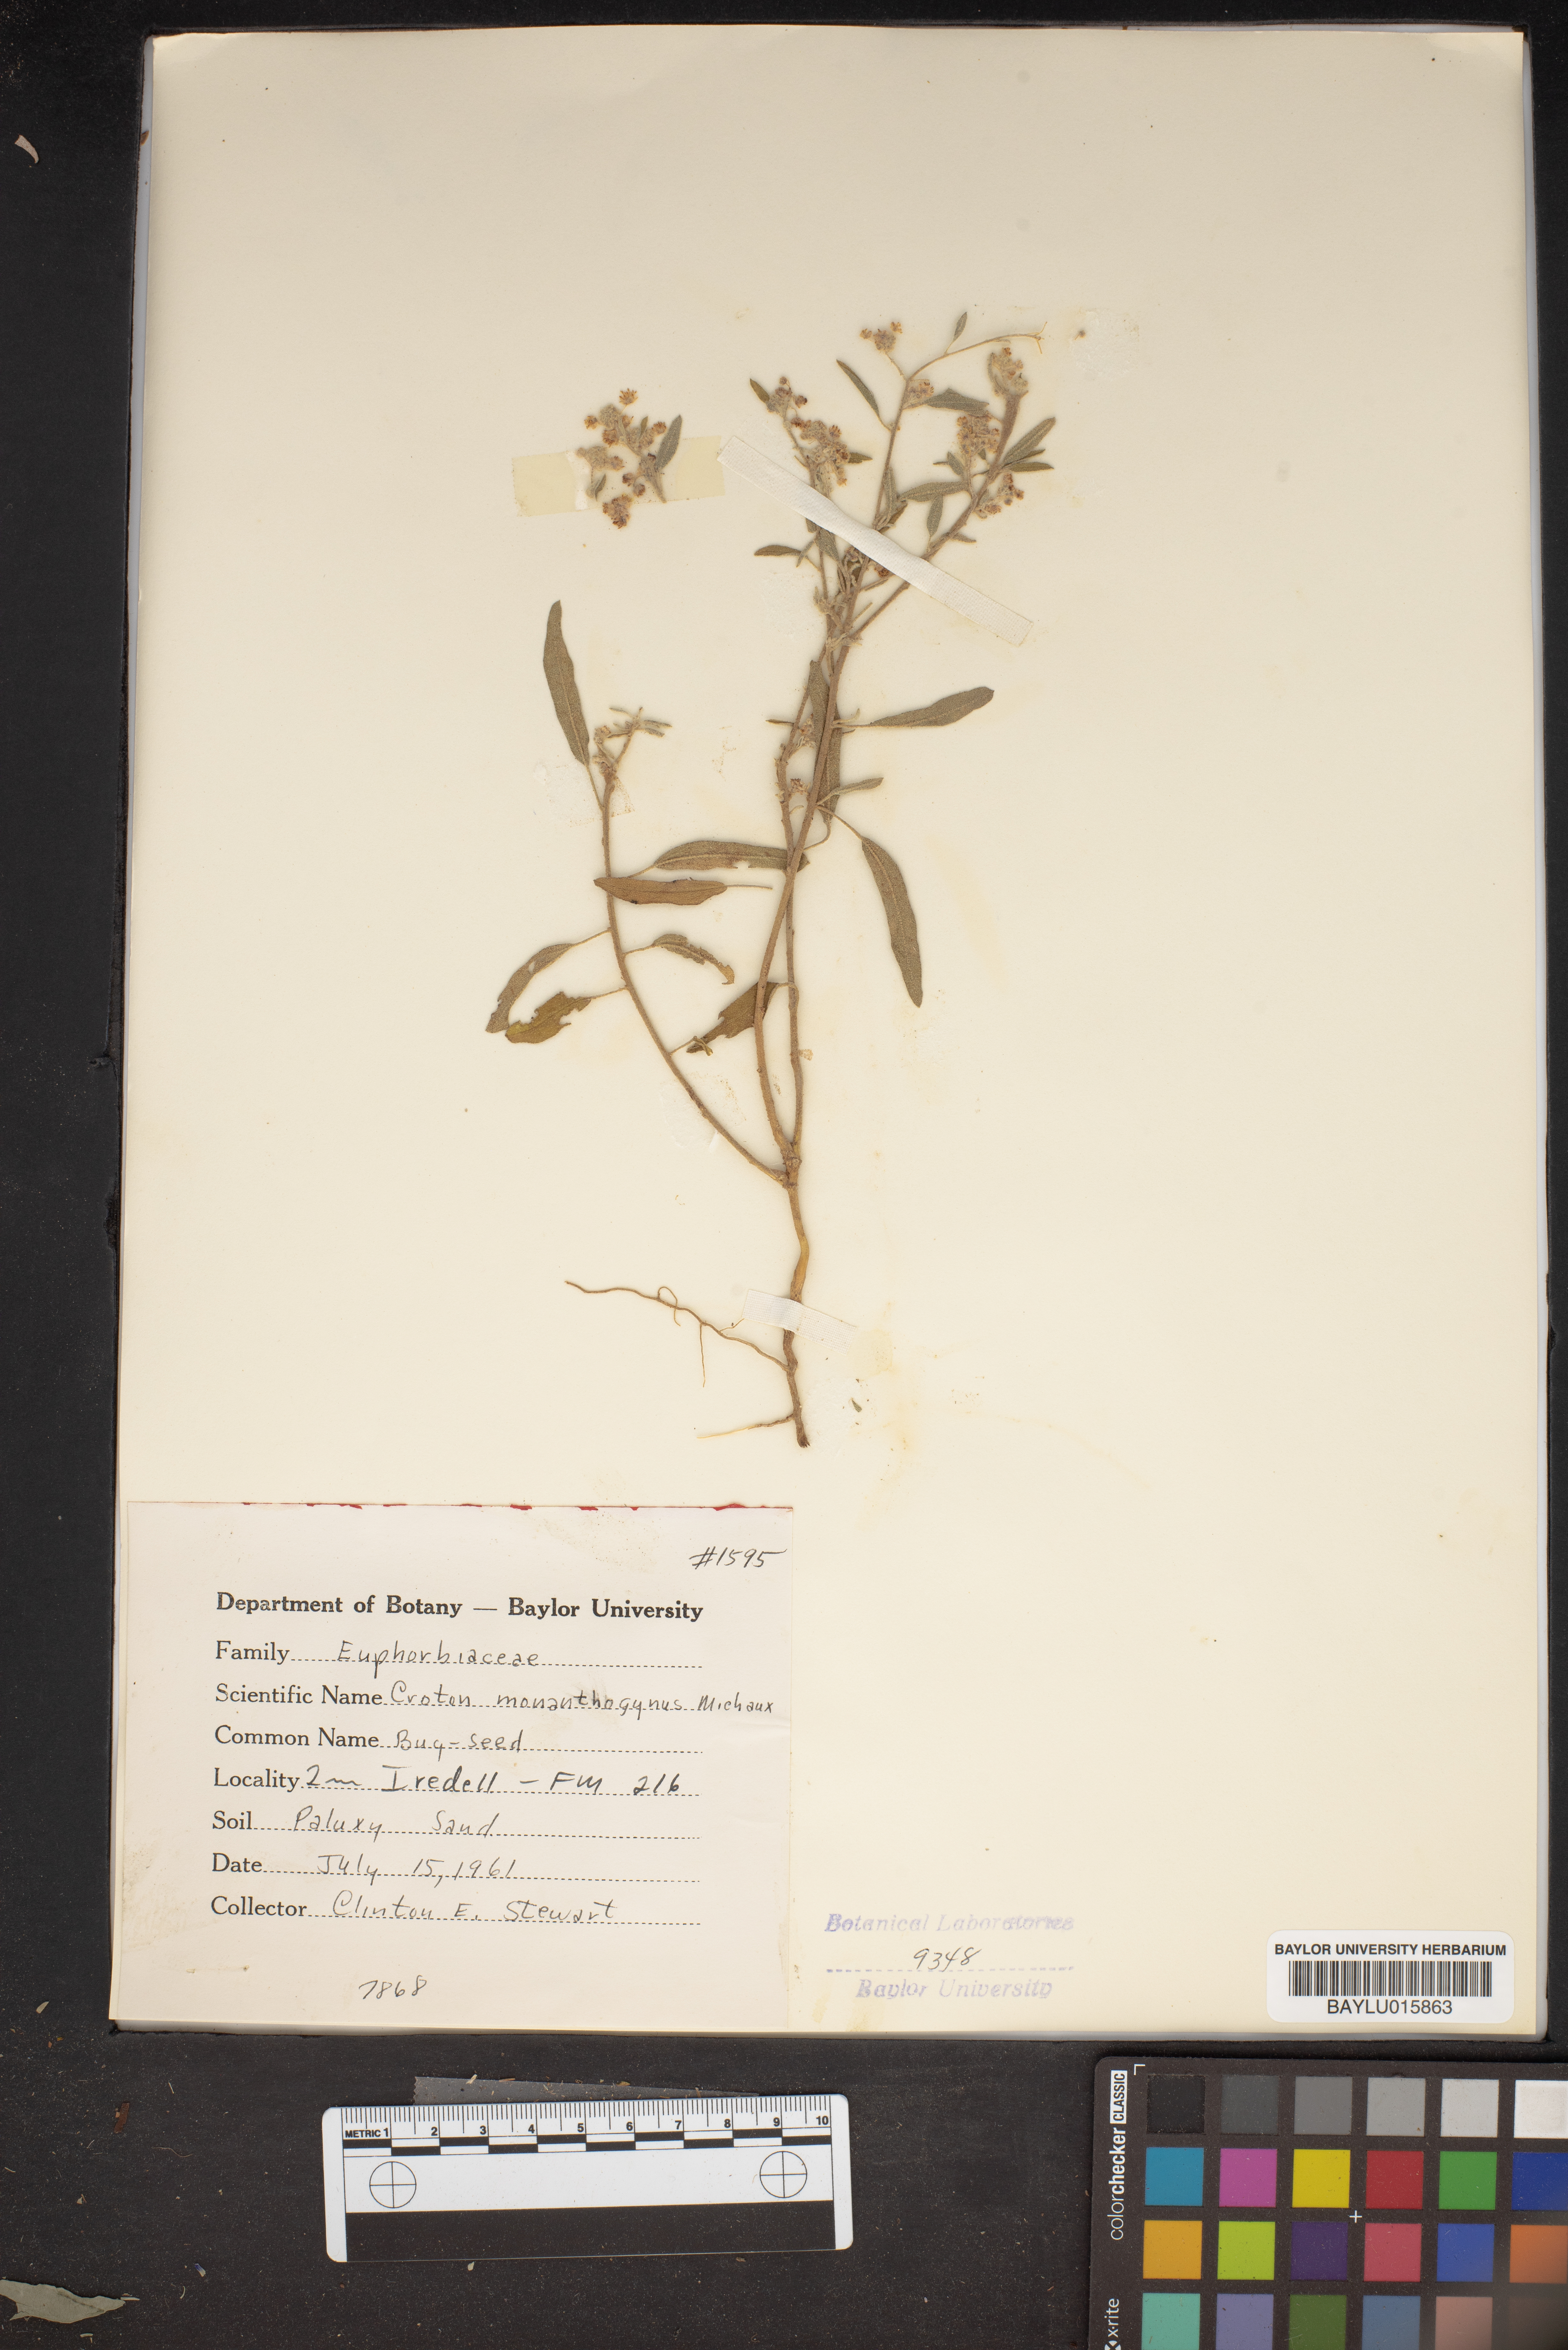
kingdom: Plantae
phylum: Tracheophyta
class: Magnoliopsida
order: Malpighiales
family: Euphorbiaceae
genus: Croton
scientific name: Croton monanthogynus
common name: One-seed croton
